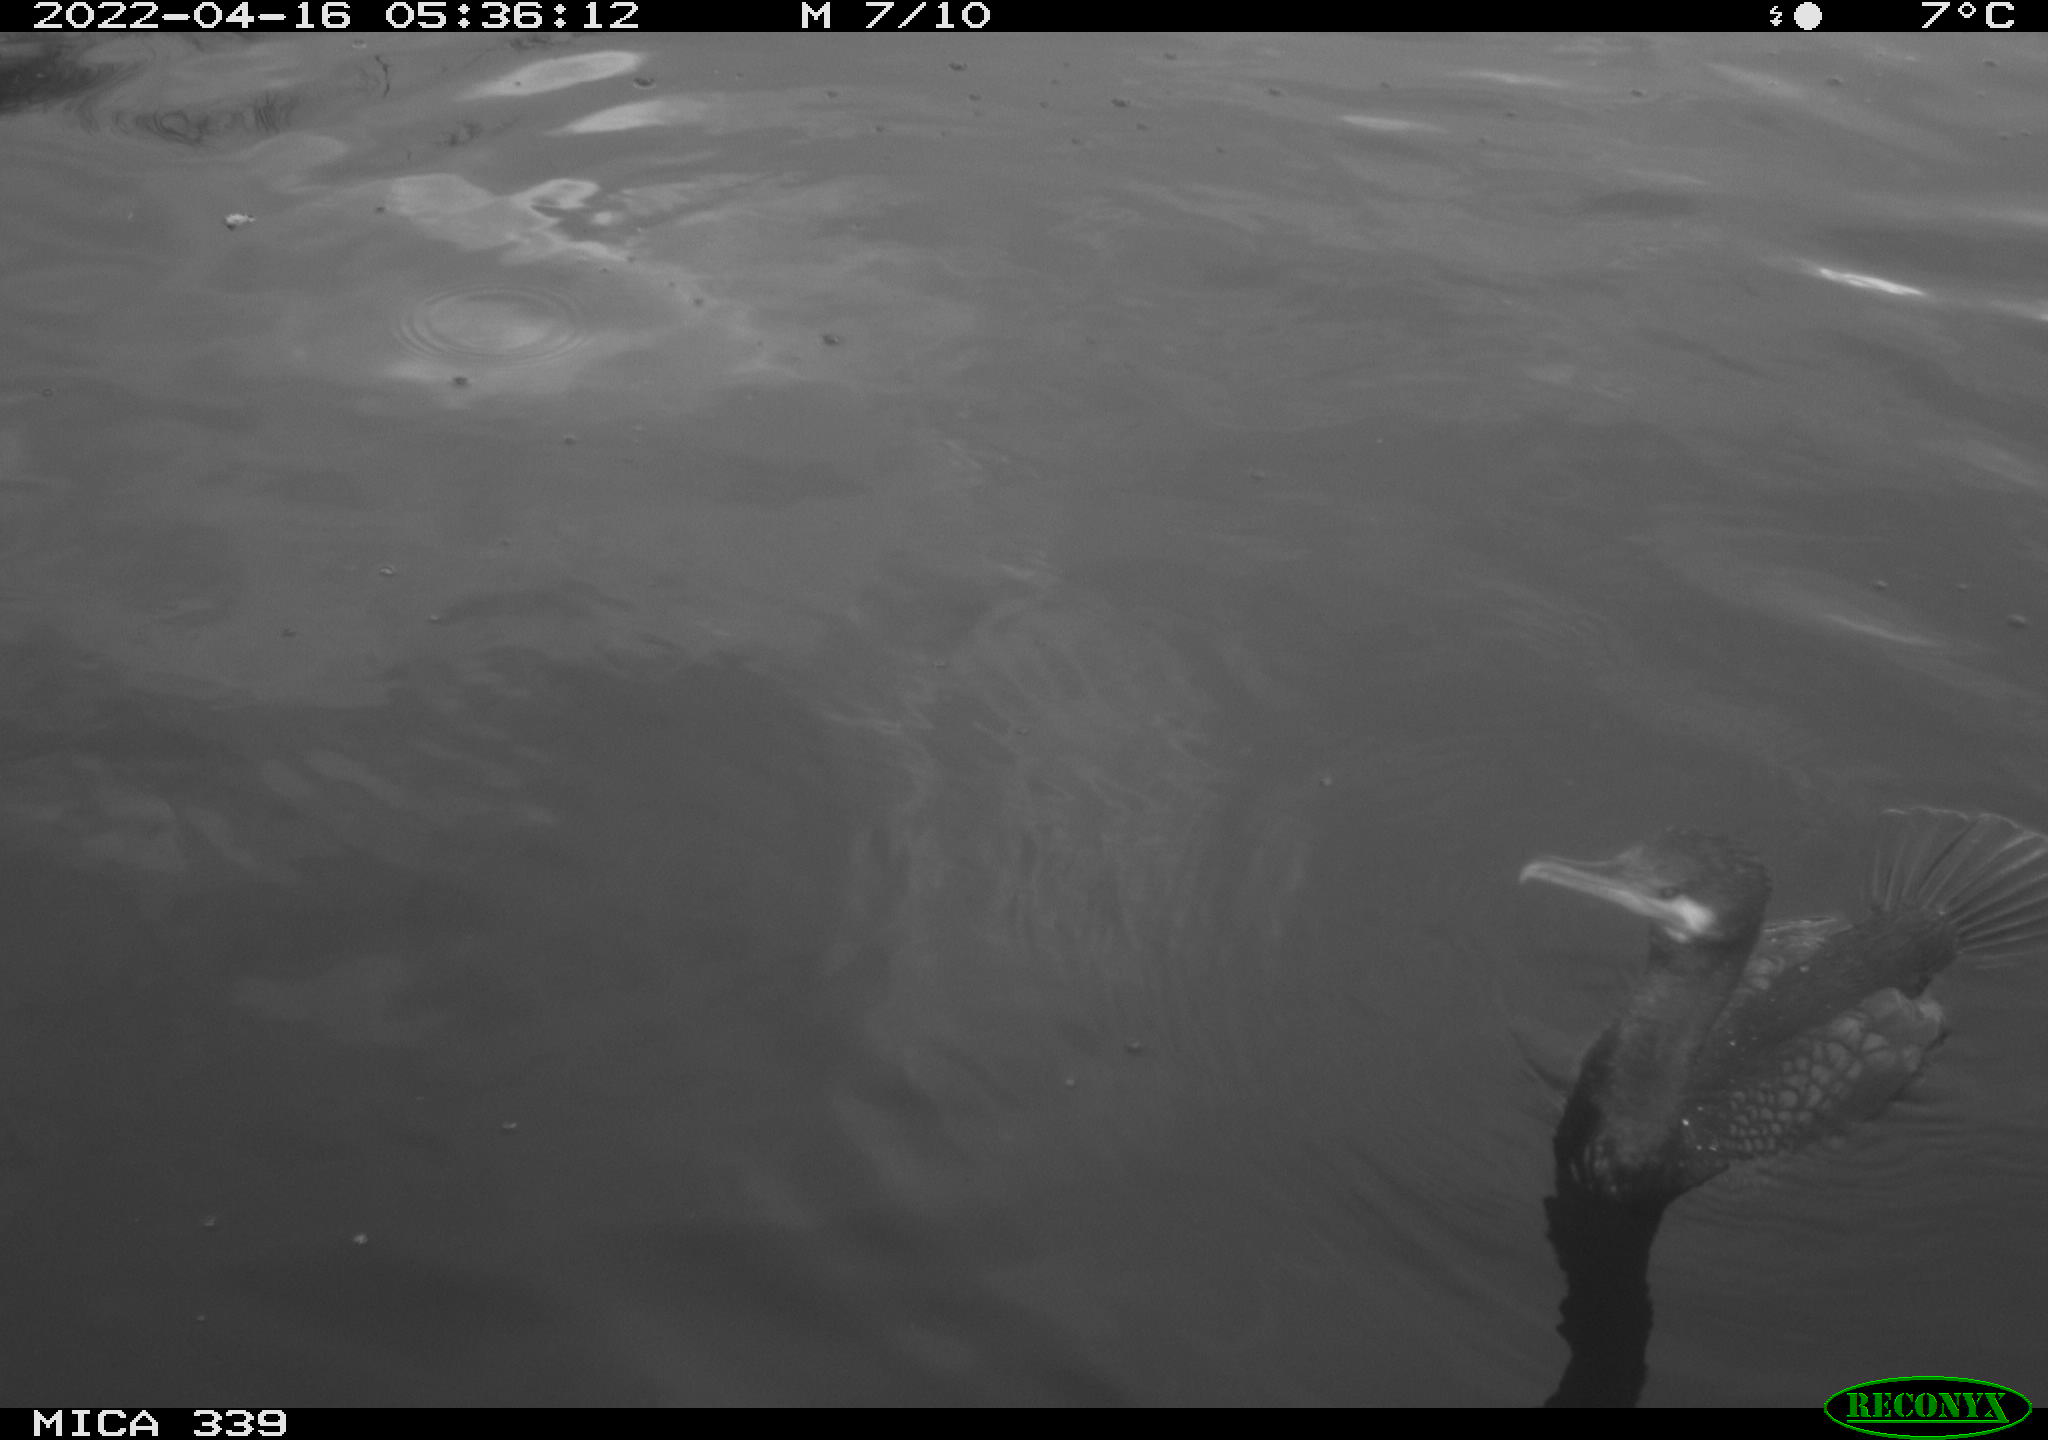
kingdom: Animalia
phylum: Chordata
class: Aves
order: Suliformes
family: Phalacrocoracidae
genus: Phalacrocorax
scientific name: Phalacrocorax carbo
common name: Great cormorant
